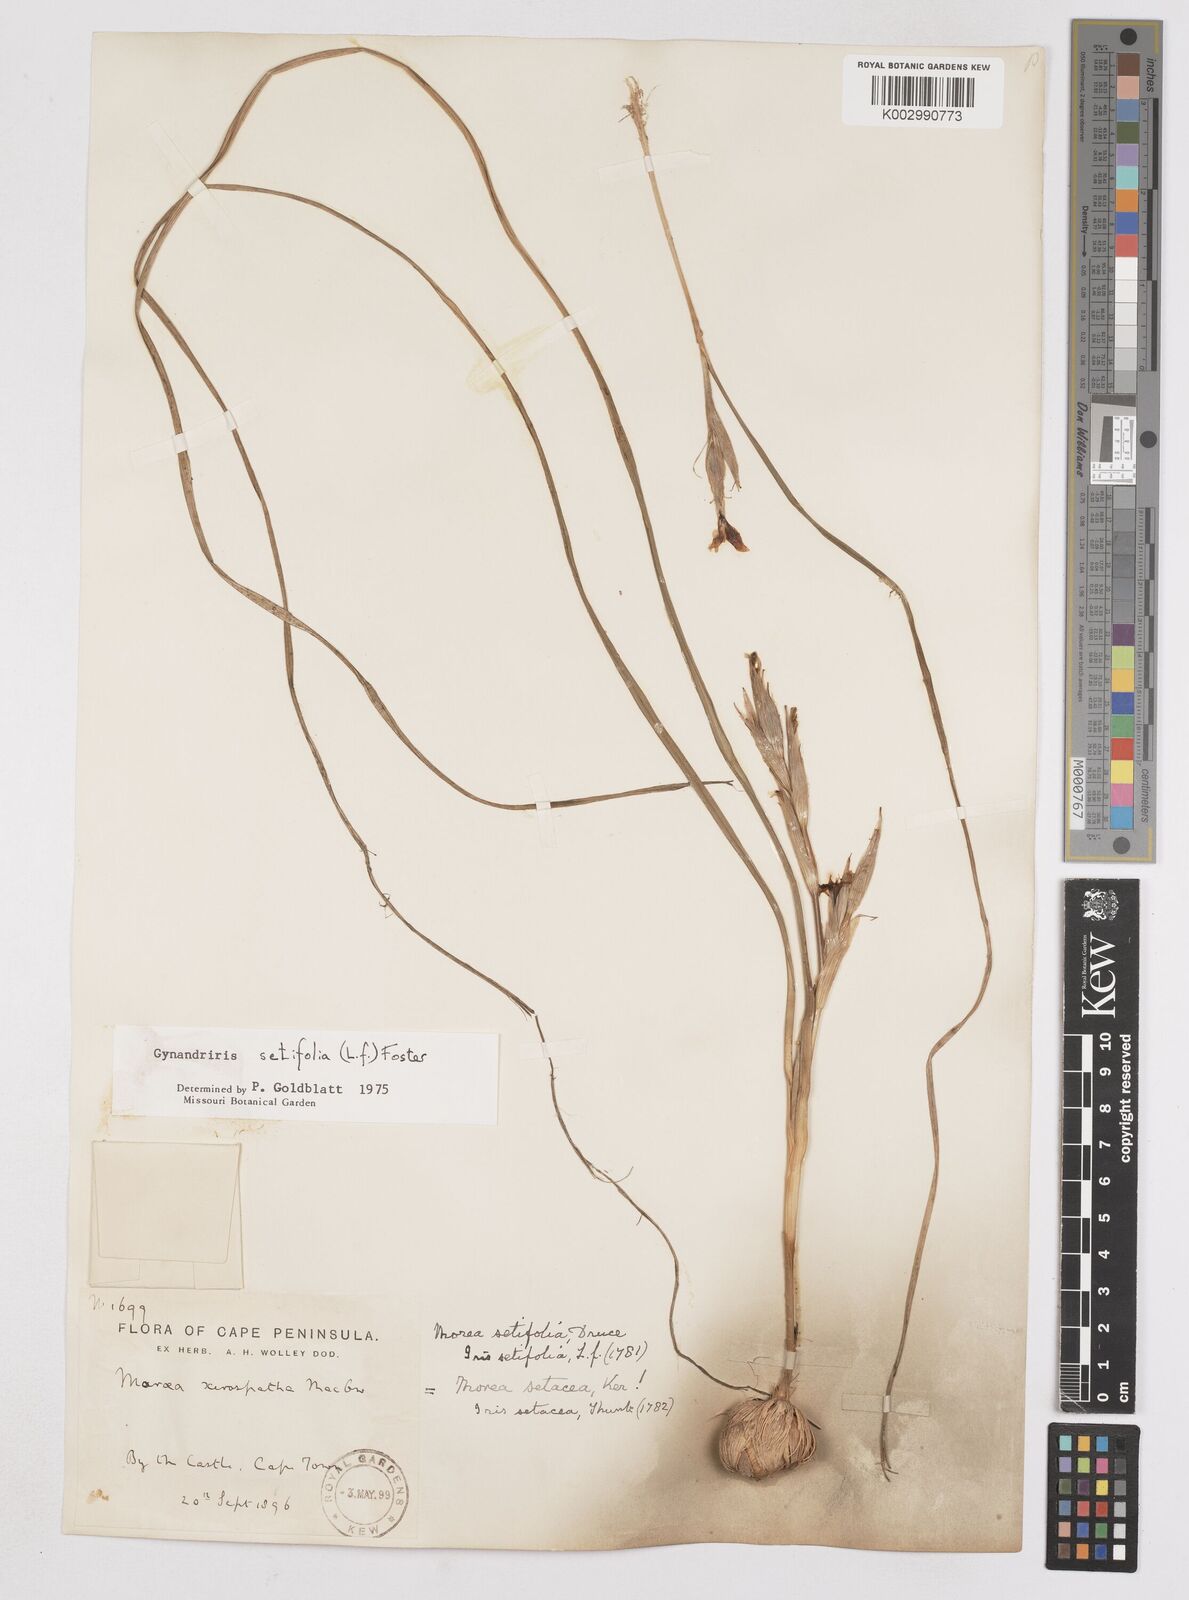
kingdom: Plantae
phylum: Tracheophyta
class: Liliopsida
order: Asparagales
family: Iridaceae
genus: Moraea
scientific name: Moraea setifolia
